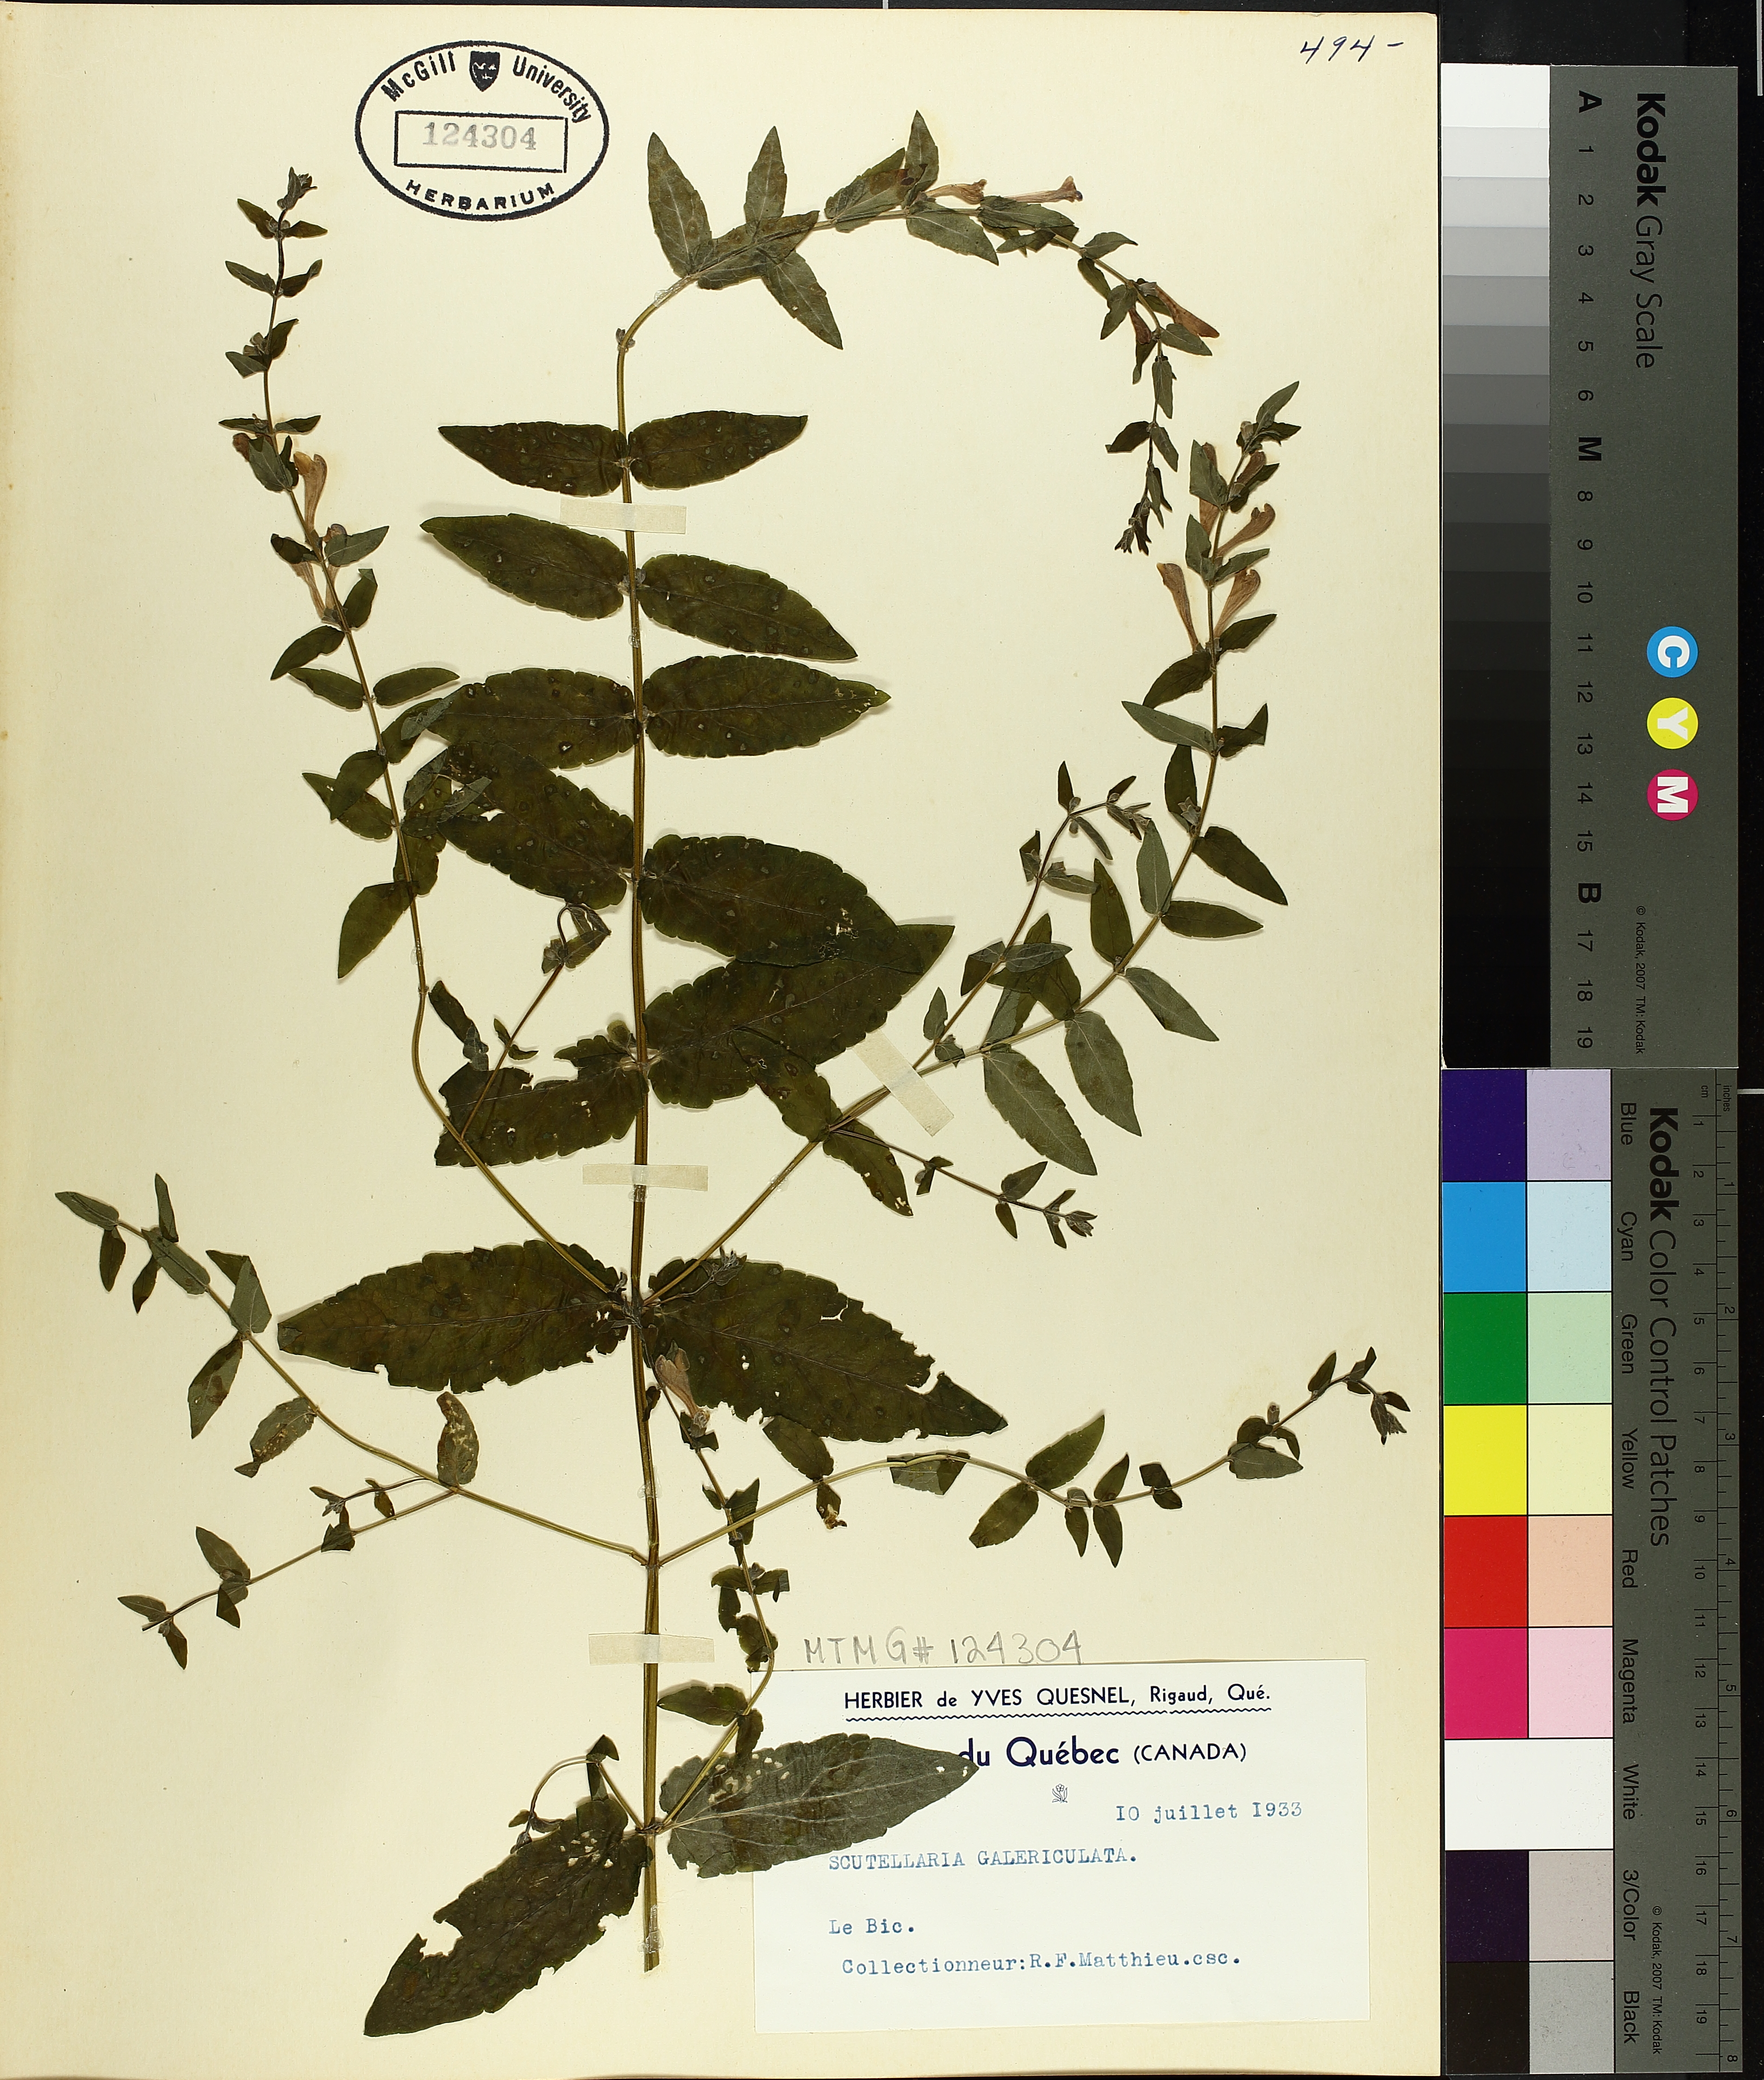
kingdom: Plantae
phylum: Tracheophyta
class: Magnoliopsida
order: Lamiales
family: Lamiaceae
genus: Scutellaria
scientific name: Scutellaria galericulata
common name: Skullcap
